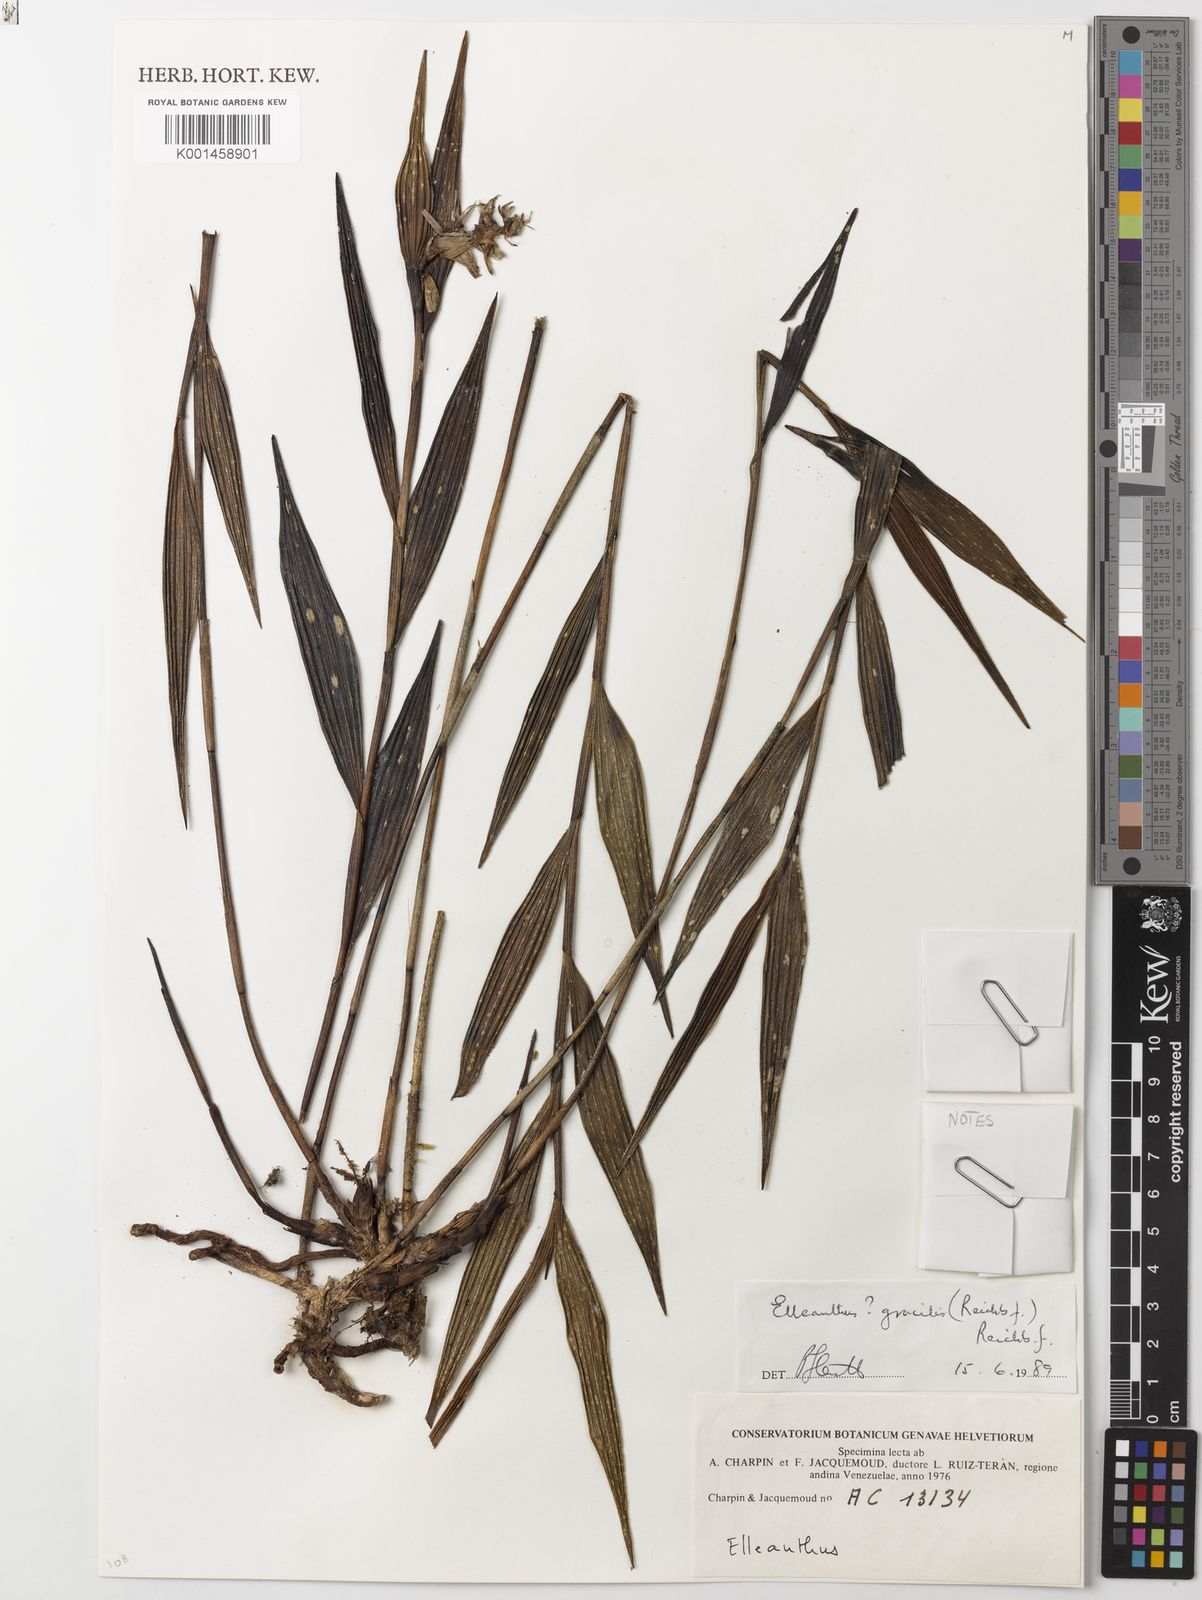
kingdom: Plantae
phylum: Tracheophyta
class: Liliopsida
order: Asparagales
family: Orchidaceae
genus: Elleanthus
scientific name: Elleanthus gracilis
